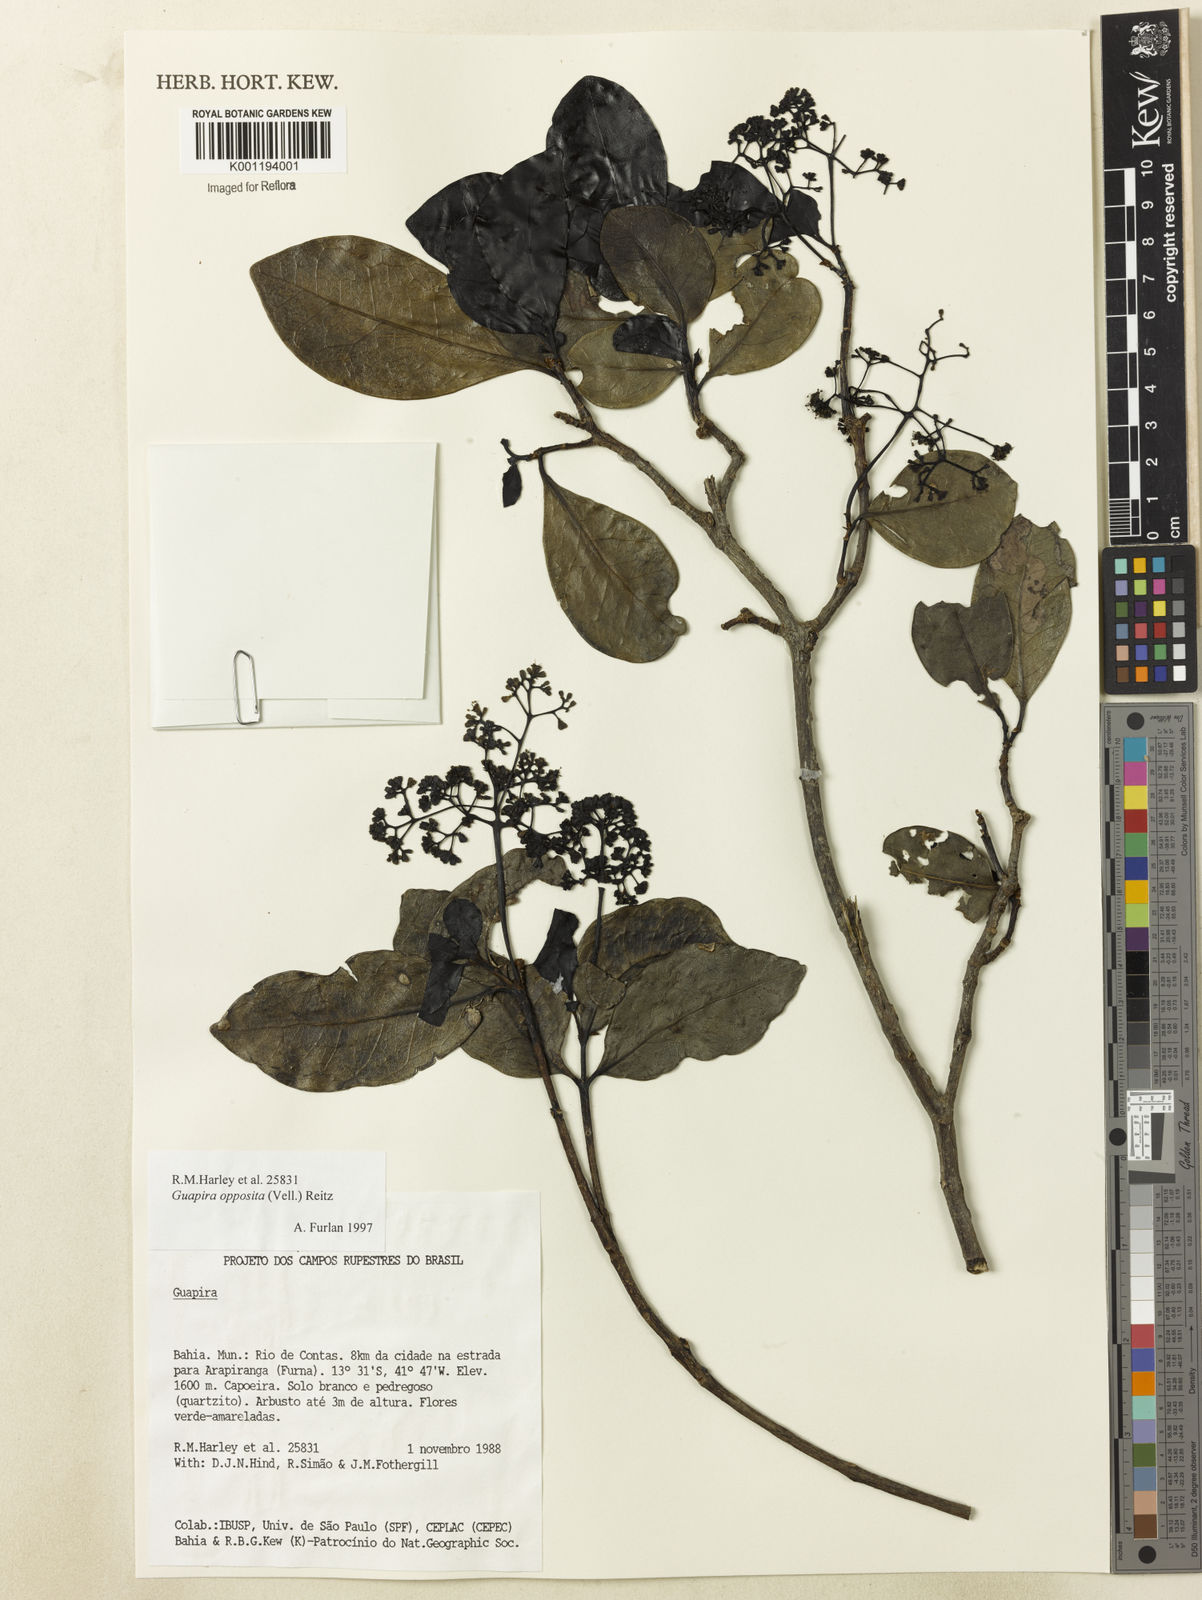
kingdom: Plantae
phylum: Tracheophyta
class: Magnoliopsida
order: Caryophyllales
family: Nyctaginaceae
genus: Guapira
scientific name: Guapira opposita
